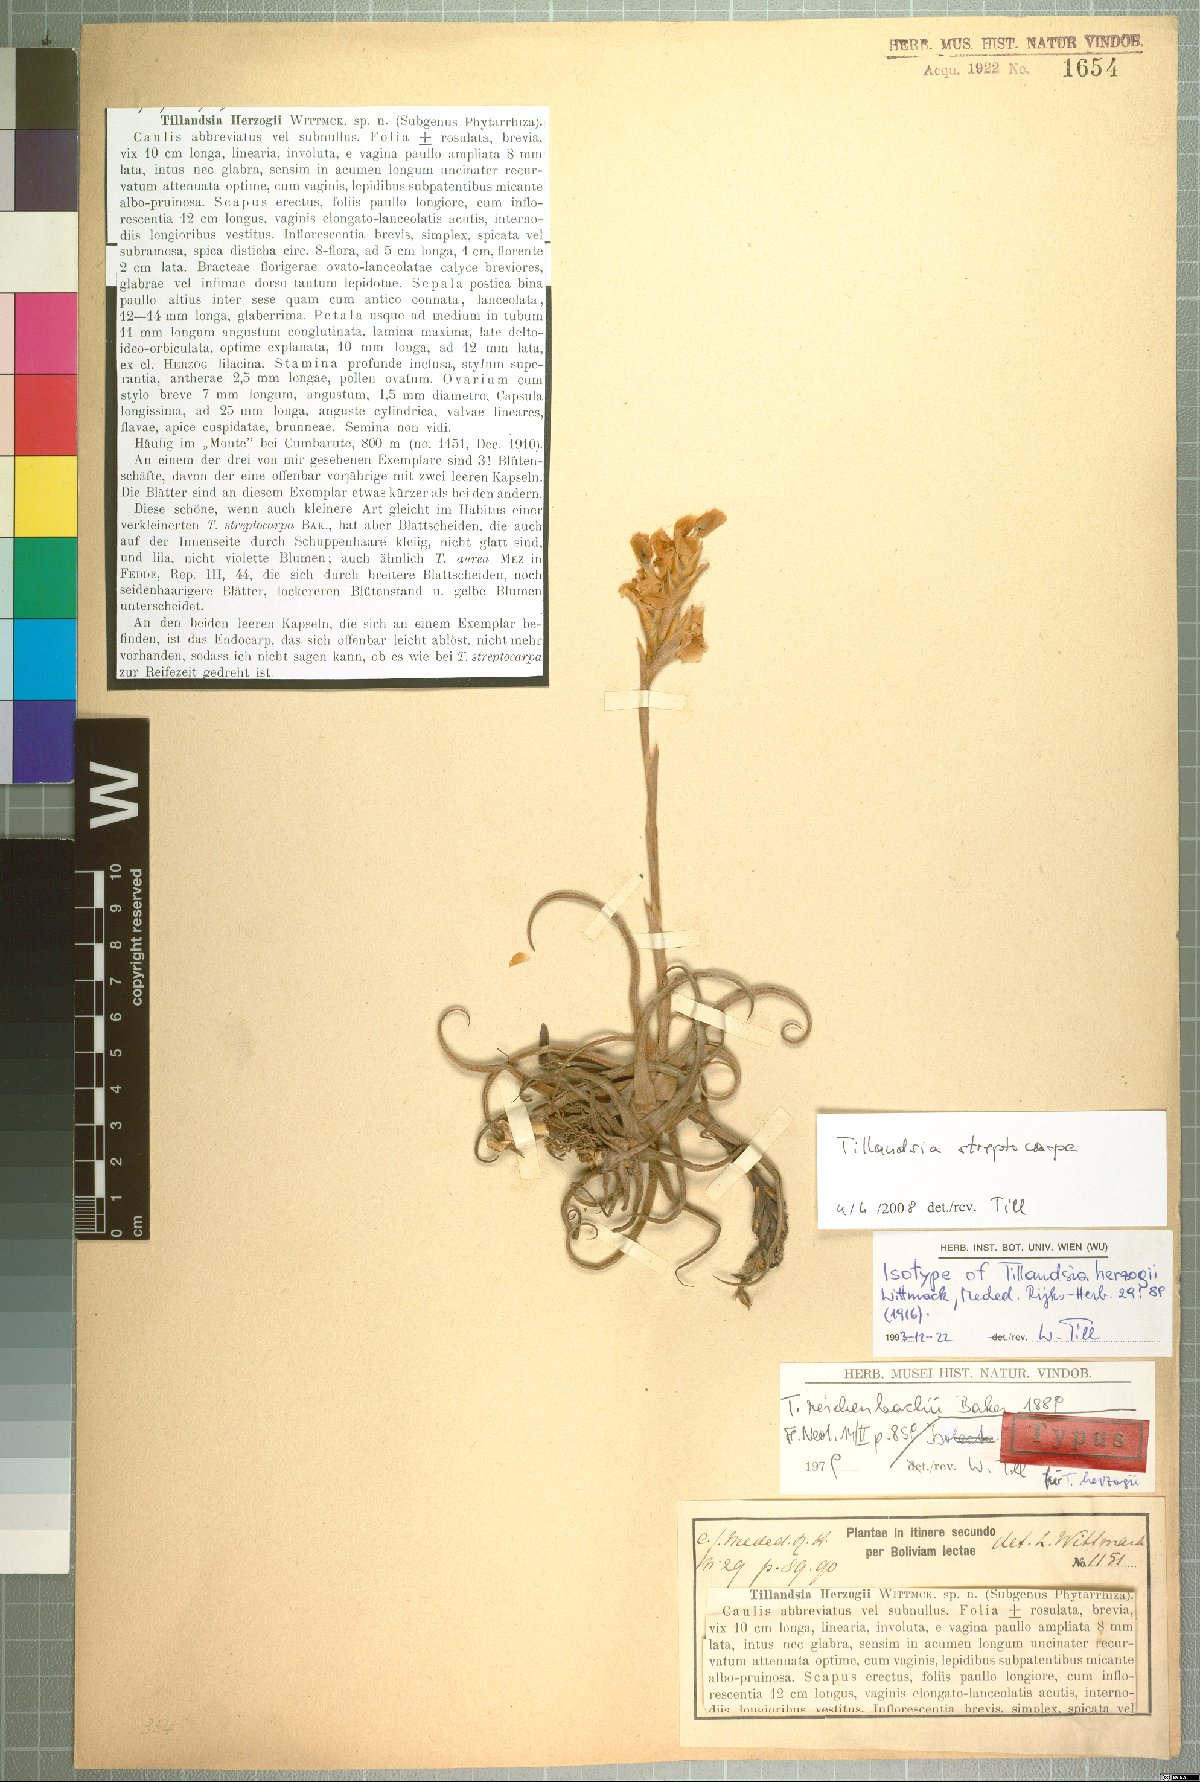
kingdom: Plantae
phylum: Tracheophyta
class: Liliopsida
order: Poales
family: Bromeliaceae
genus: Tillandsia
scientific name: Tillandsia streptocarpa
